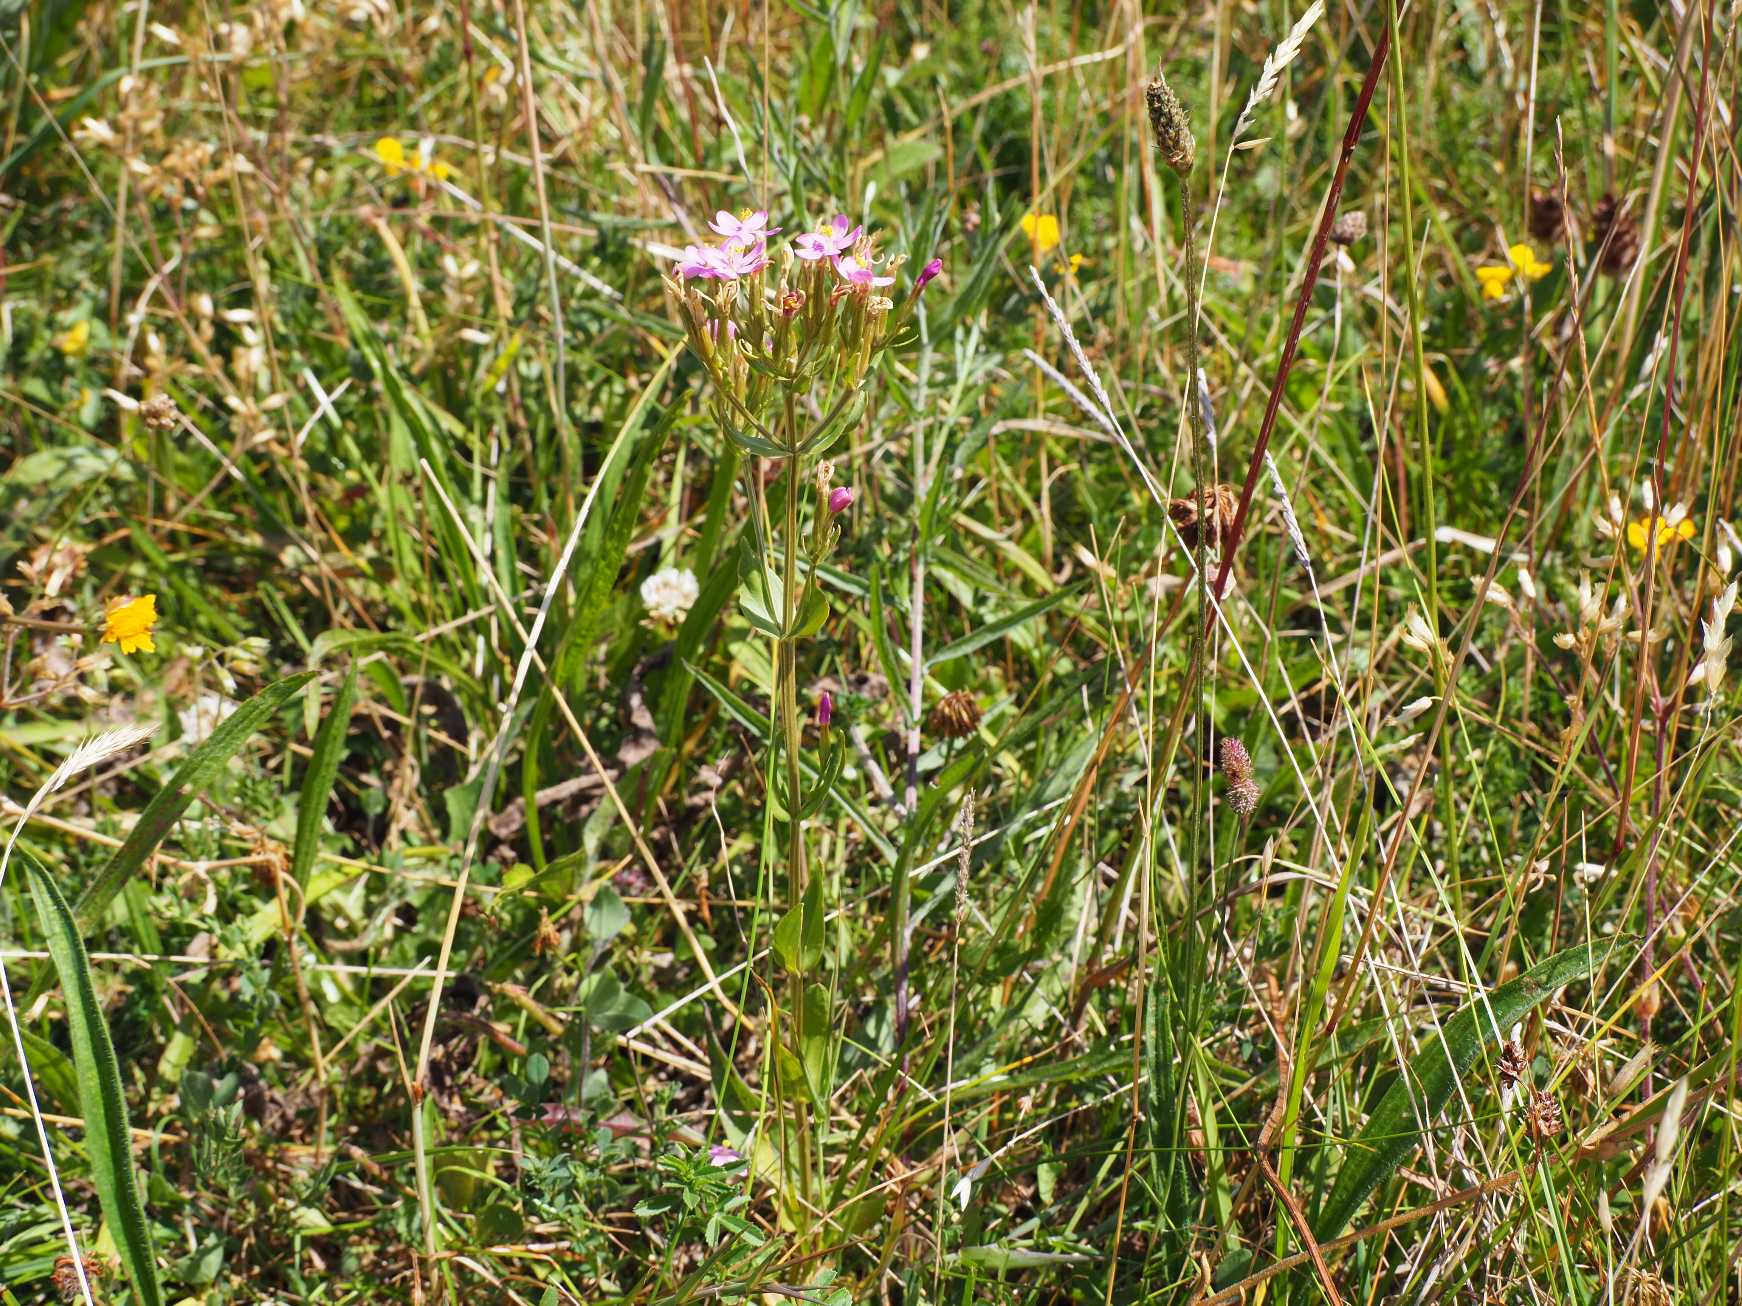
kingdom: Plantae
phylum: Tracheophyta
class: Magnoliopsida
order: Gentianales
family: Gentianaceae
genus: Centaurium
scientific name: Centaurium erythraea
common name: Mark-tusindgylden
